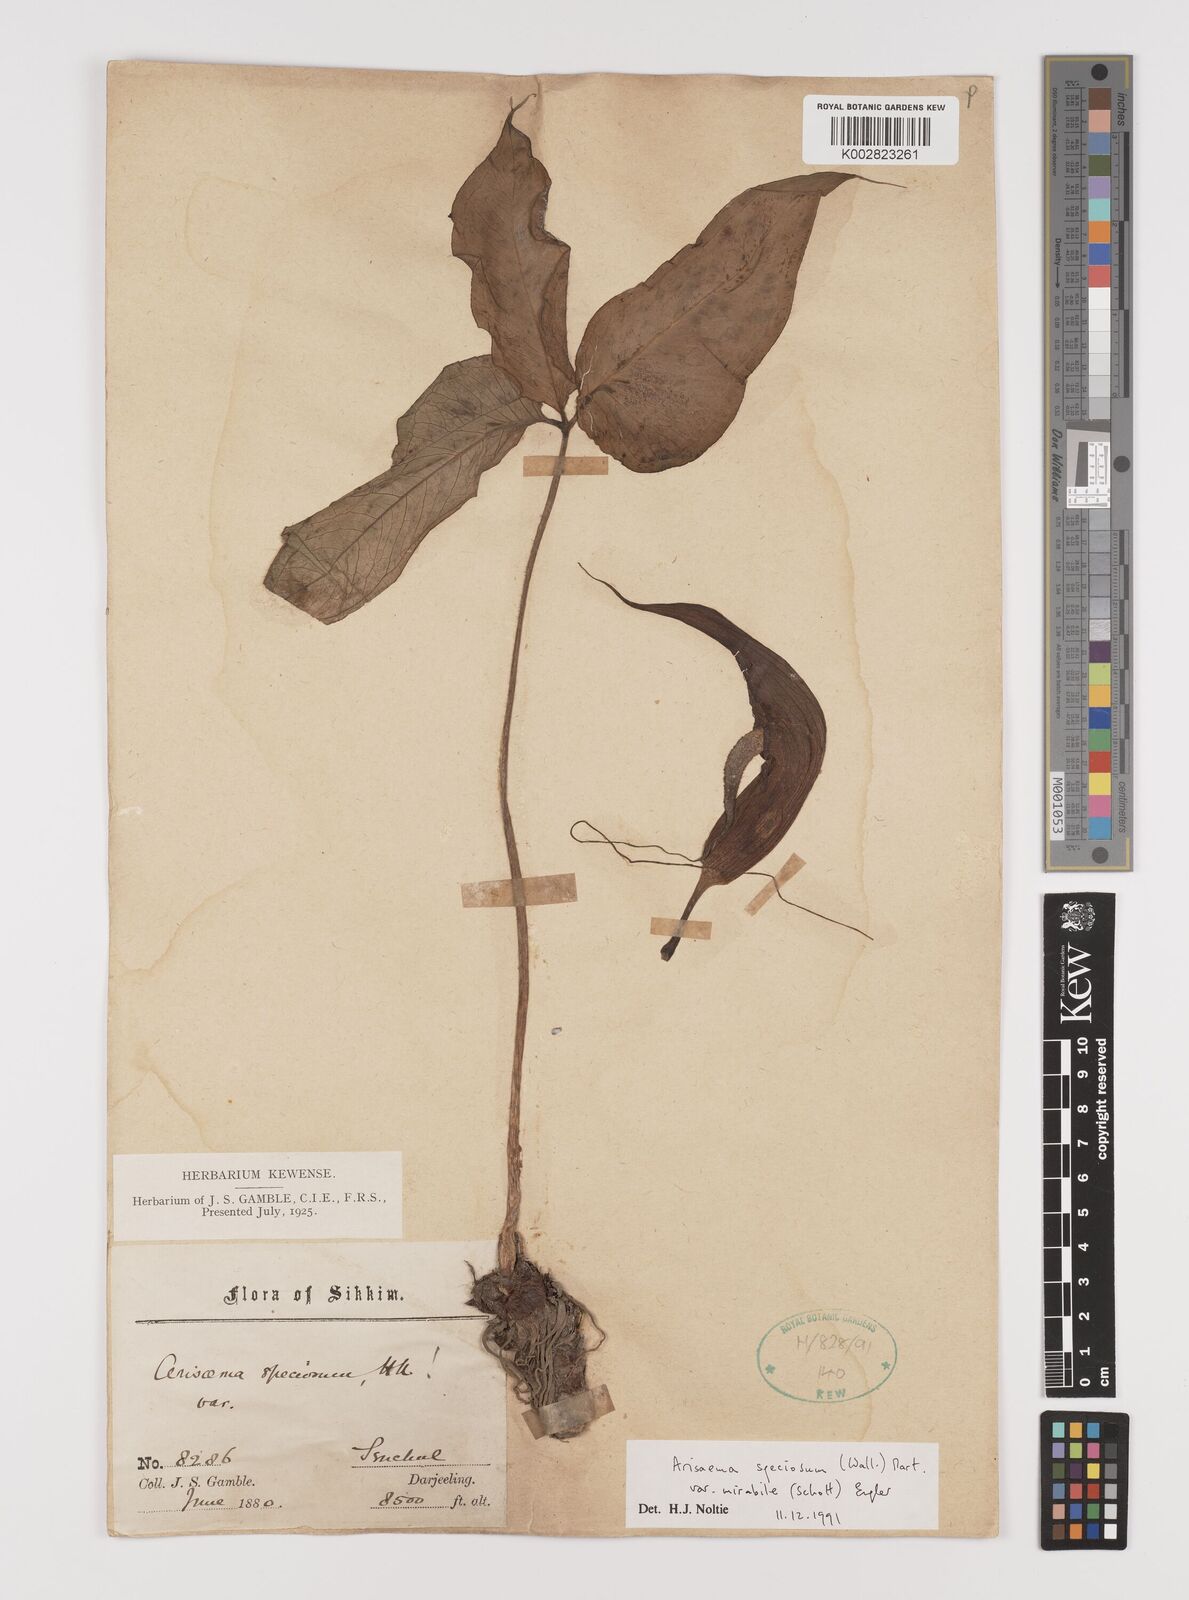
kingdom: Plantae
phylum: Tracheophyta
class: Liliopsida
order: Alismatales
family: Araceae
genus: Arisaema
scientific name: Arisaema speciosum
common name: Showy cobra-lily
